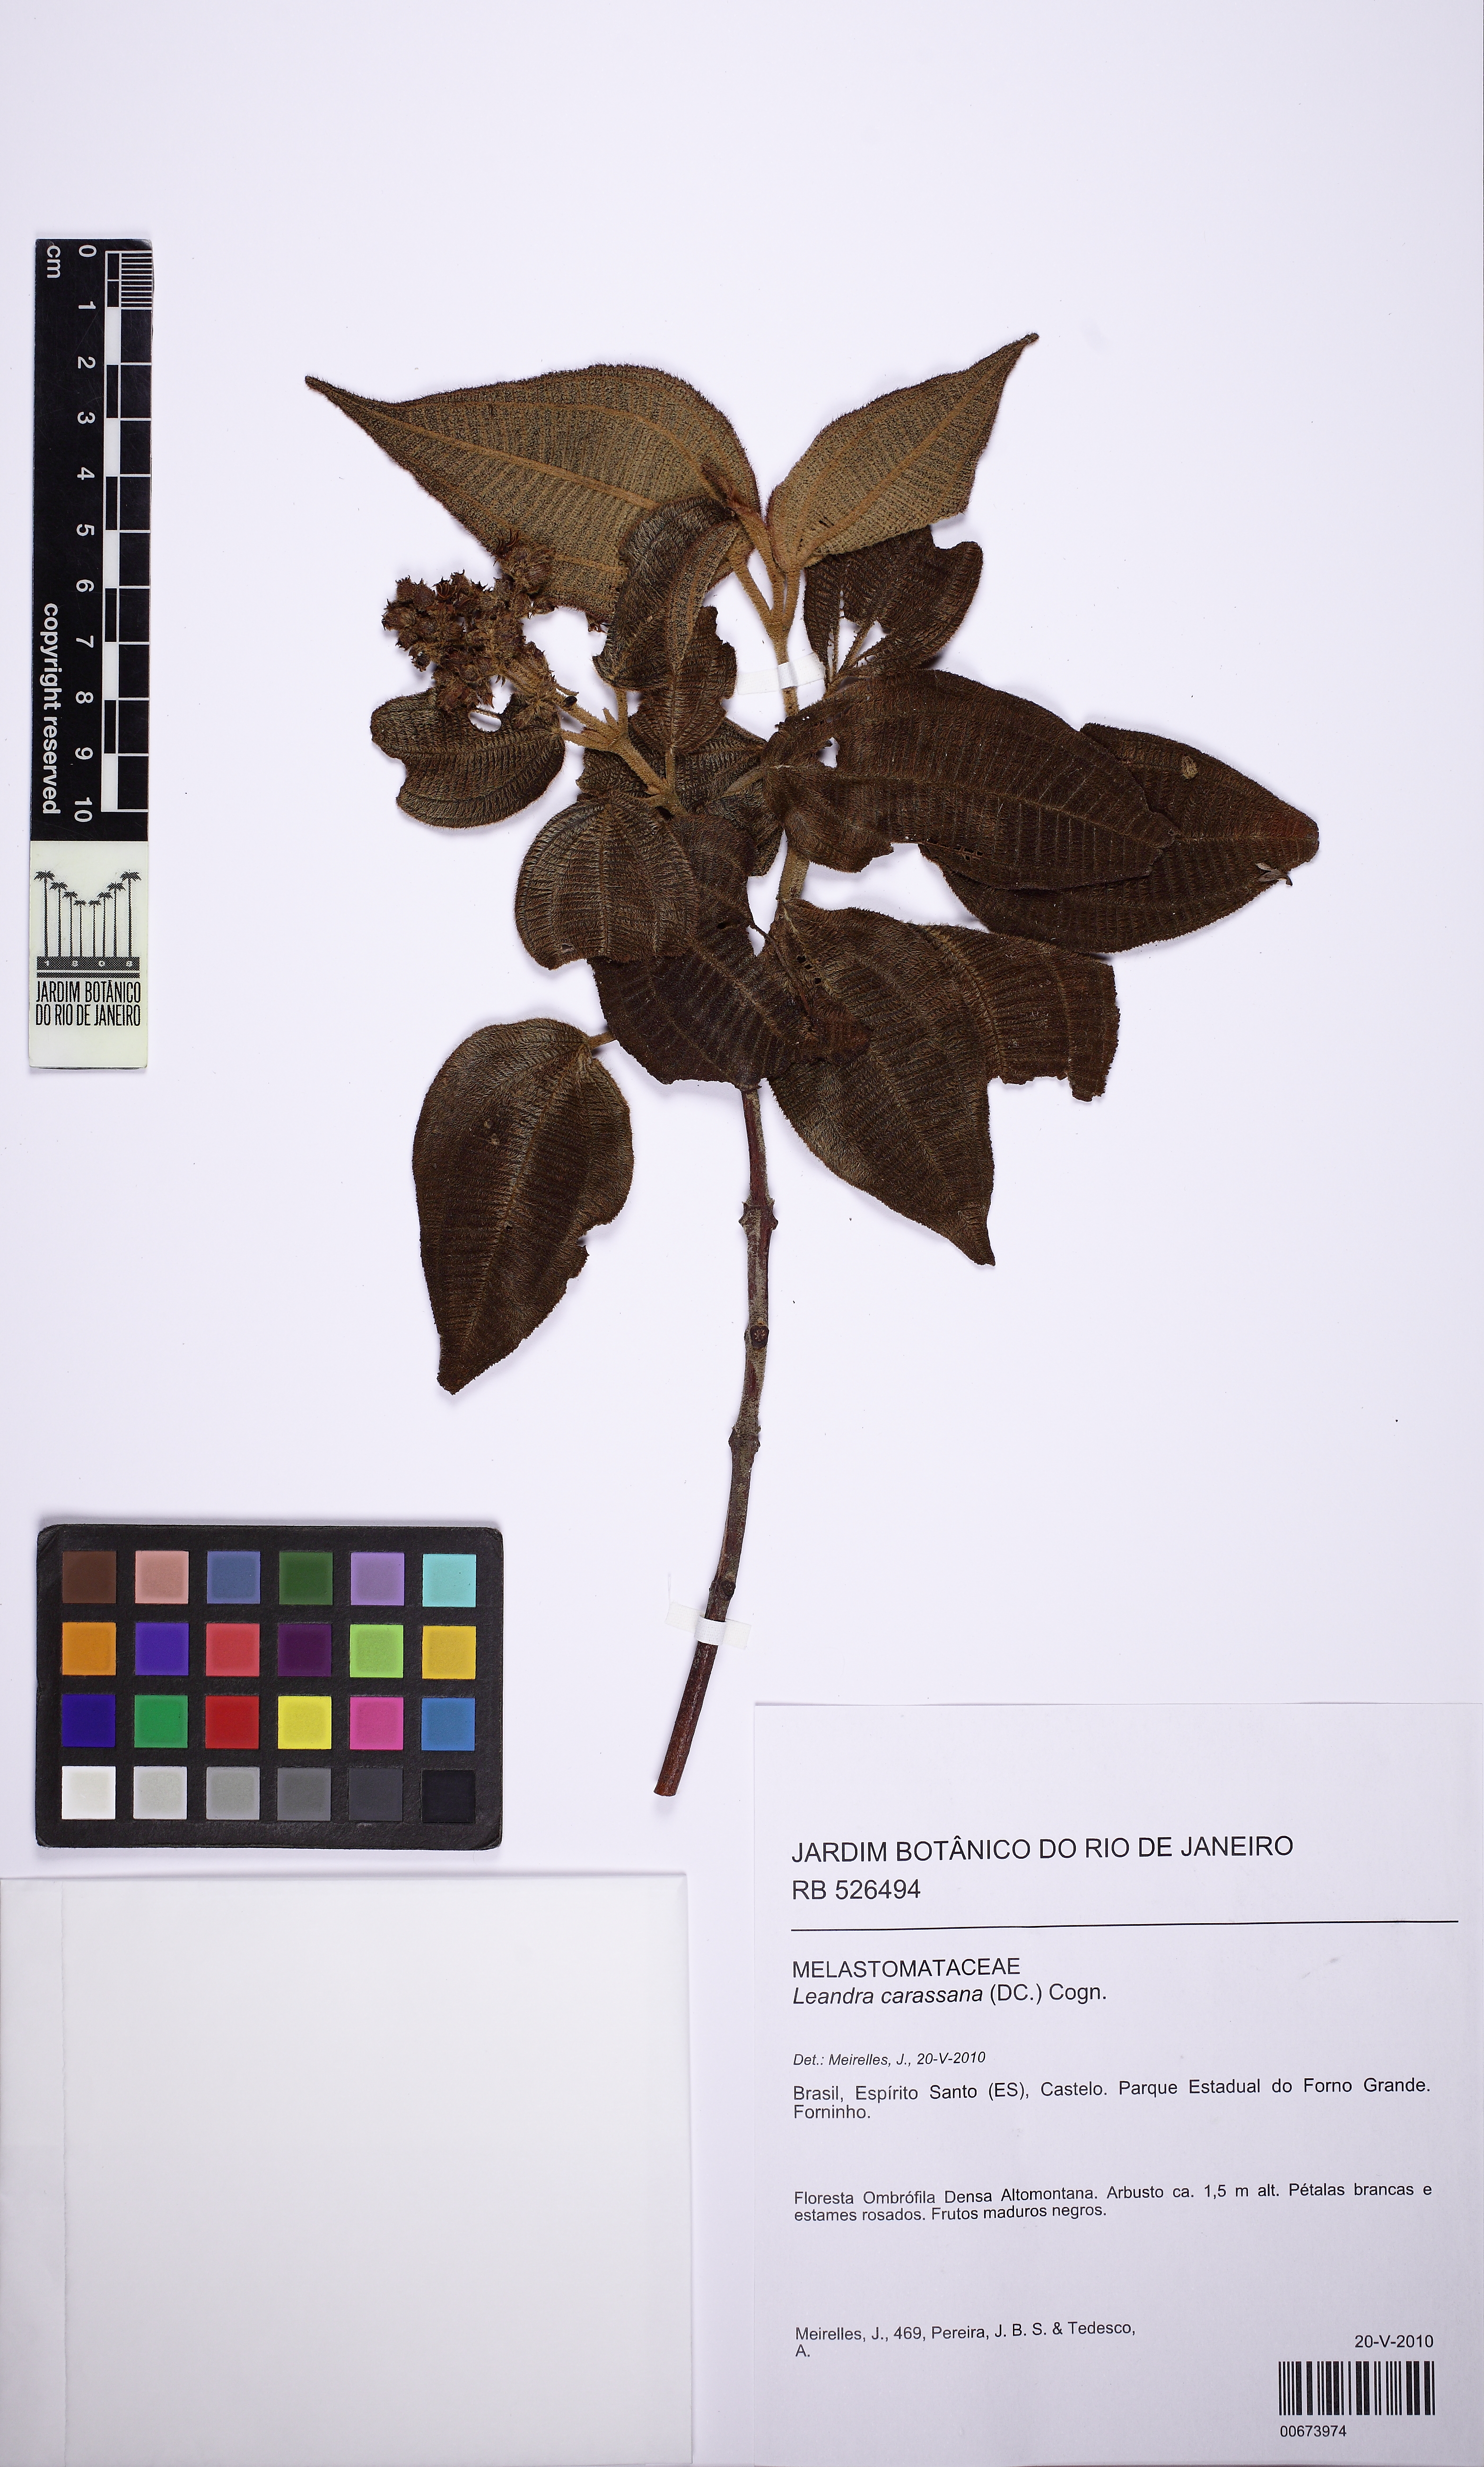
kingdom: Plantae
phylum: Tracheophyta
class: Magnoliopsida
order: Myrtales
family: Melastomataceae
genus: Miconia
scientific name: Miconia sublanata
